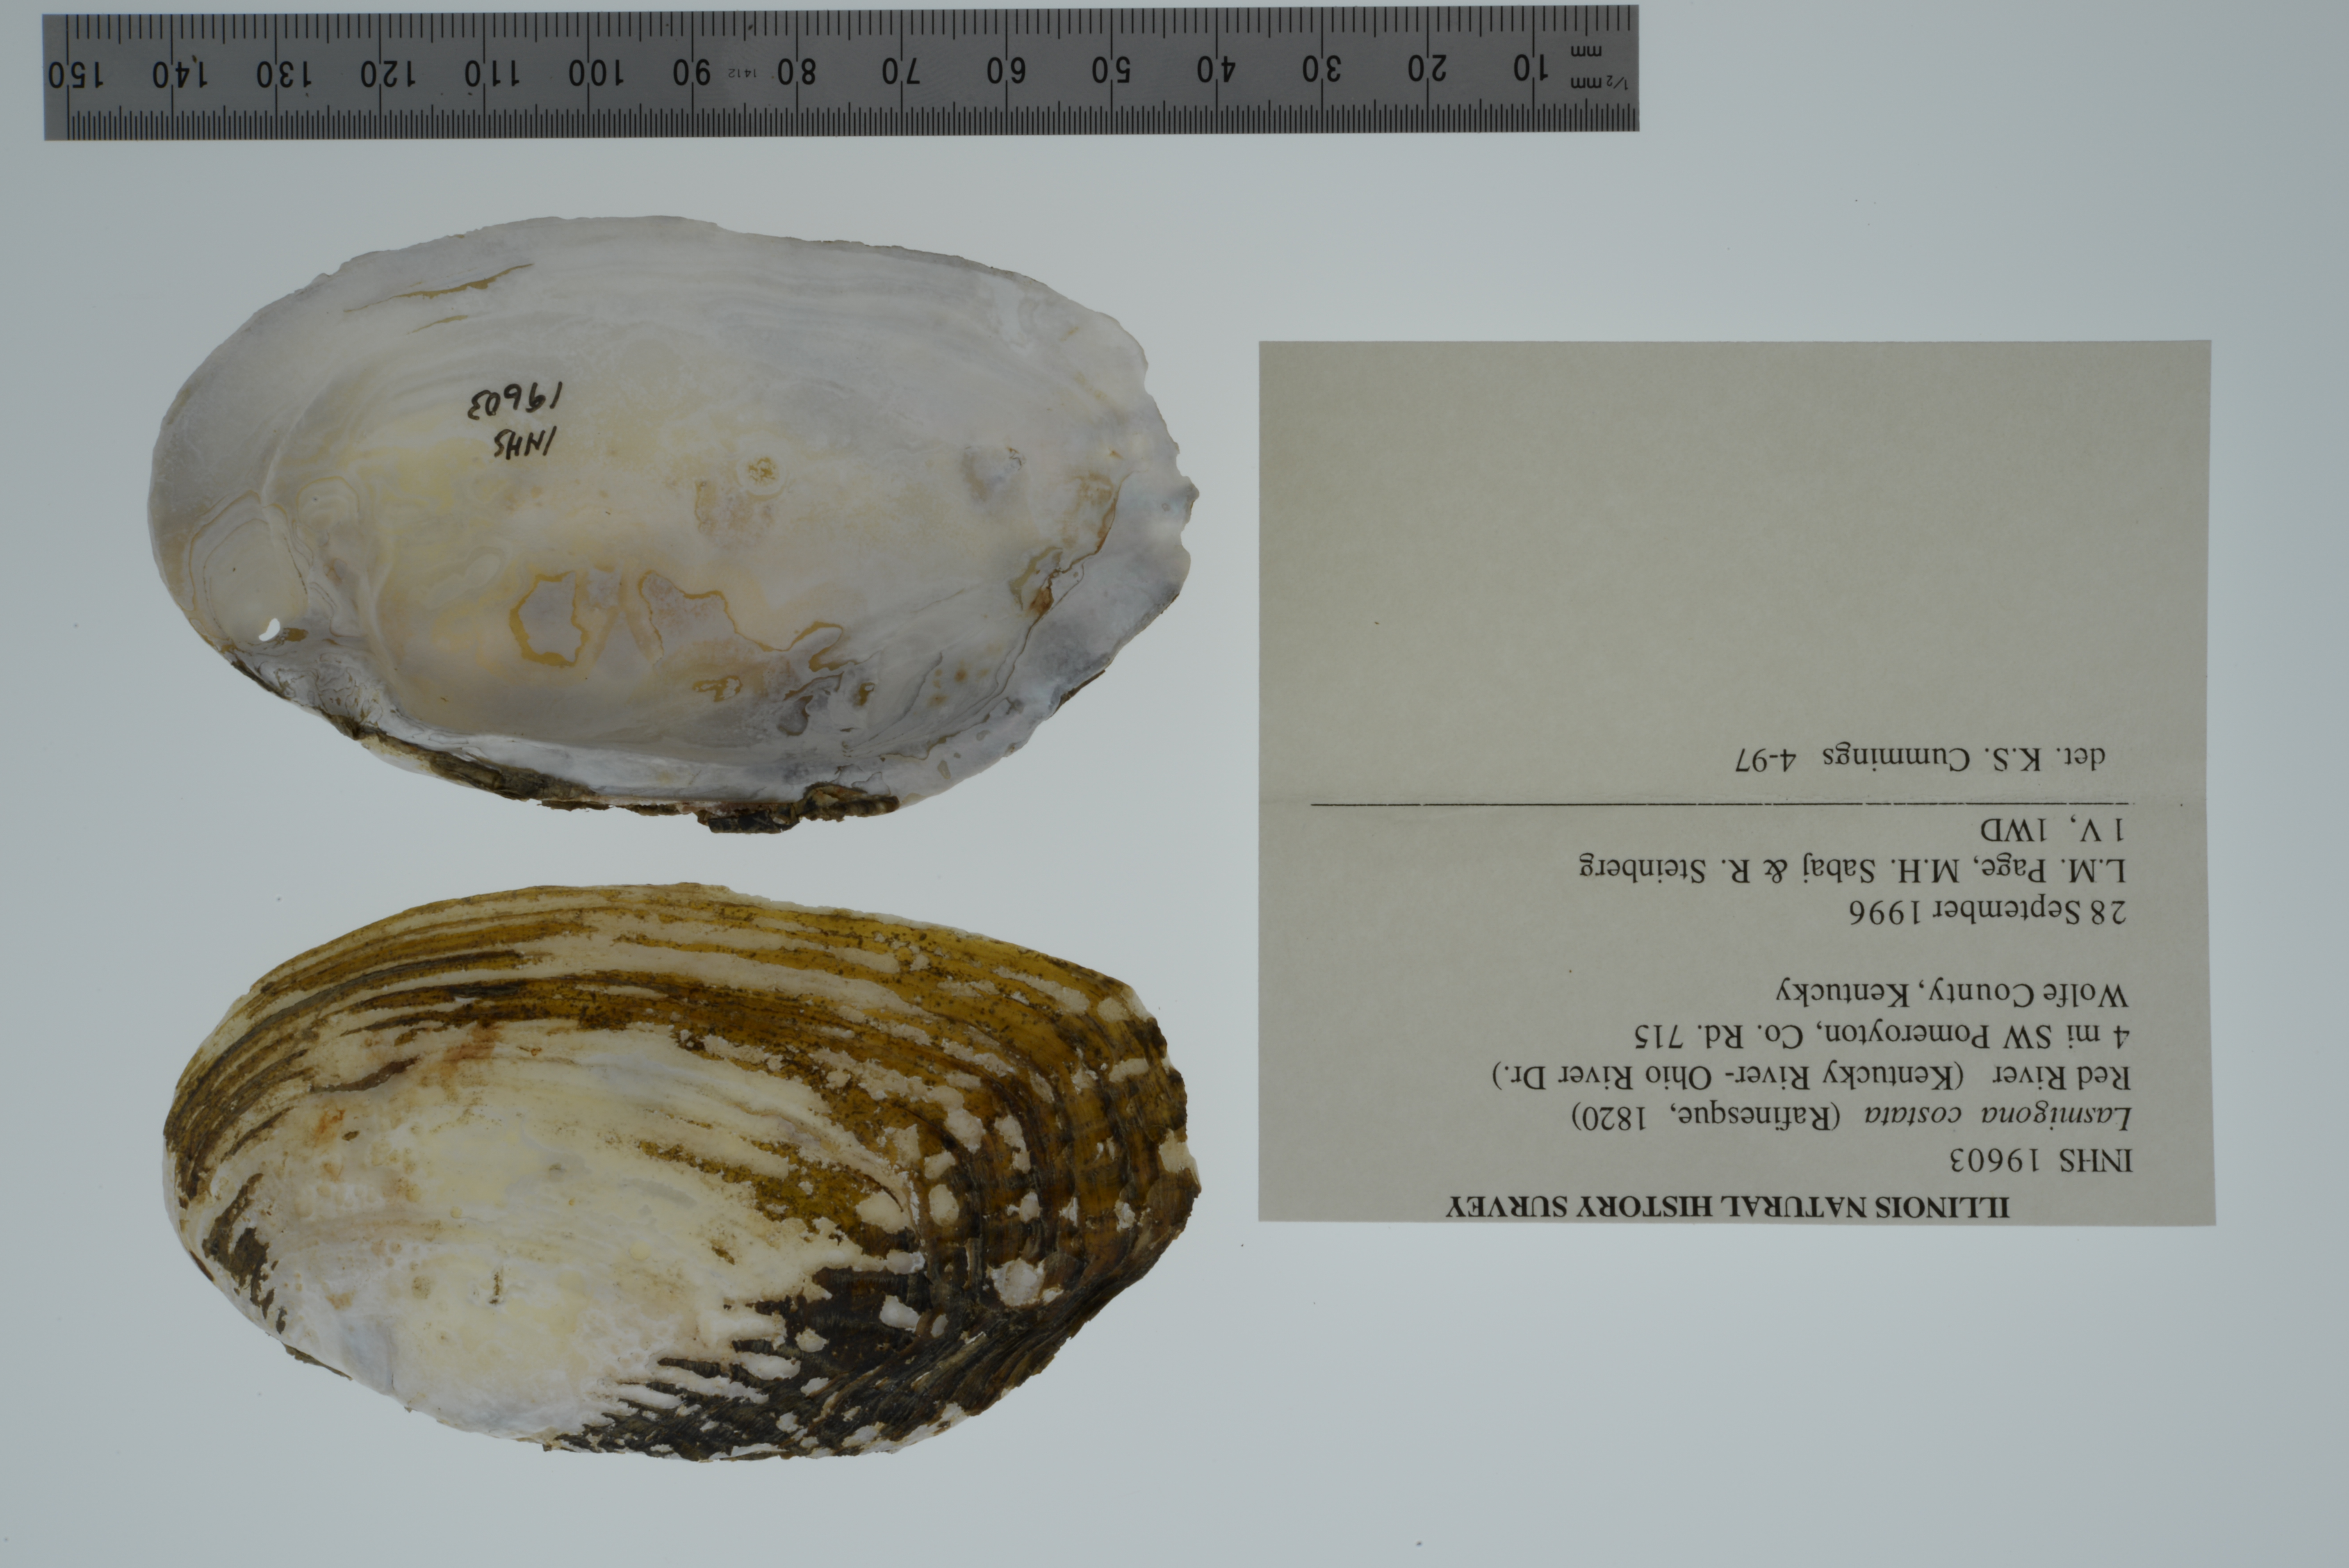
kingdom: Animalia
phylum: Mollusca
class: Bivalvia
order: Unionida
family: Unionidae
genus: Lasmigona
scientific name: Lasmigona costata
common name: Flutedshell
